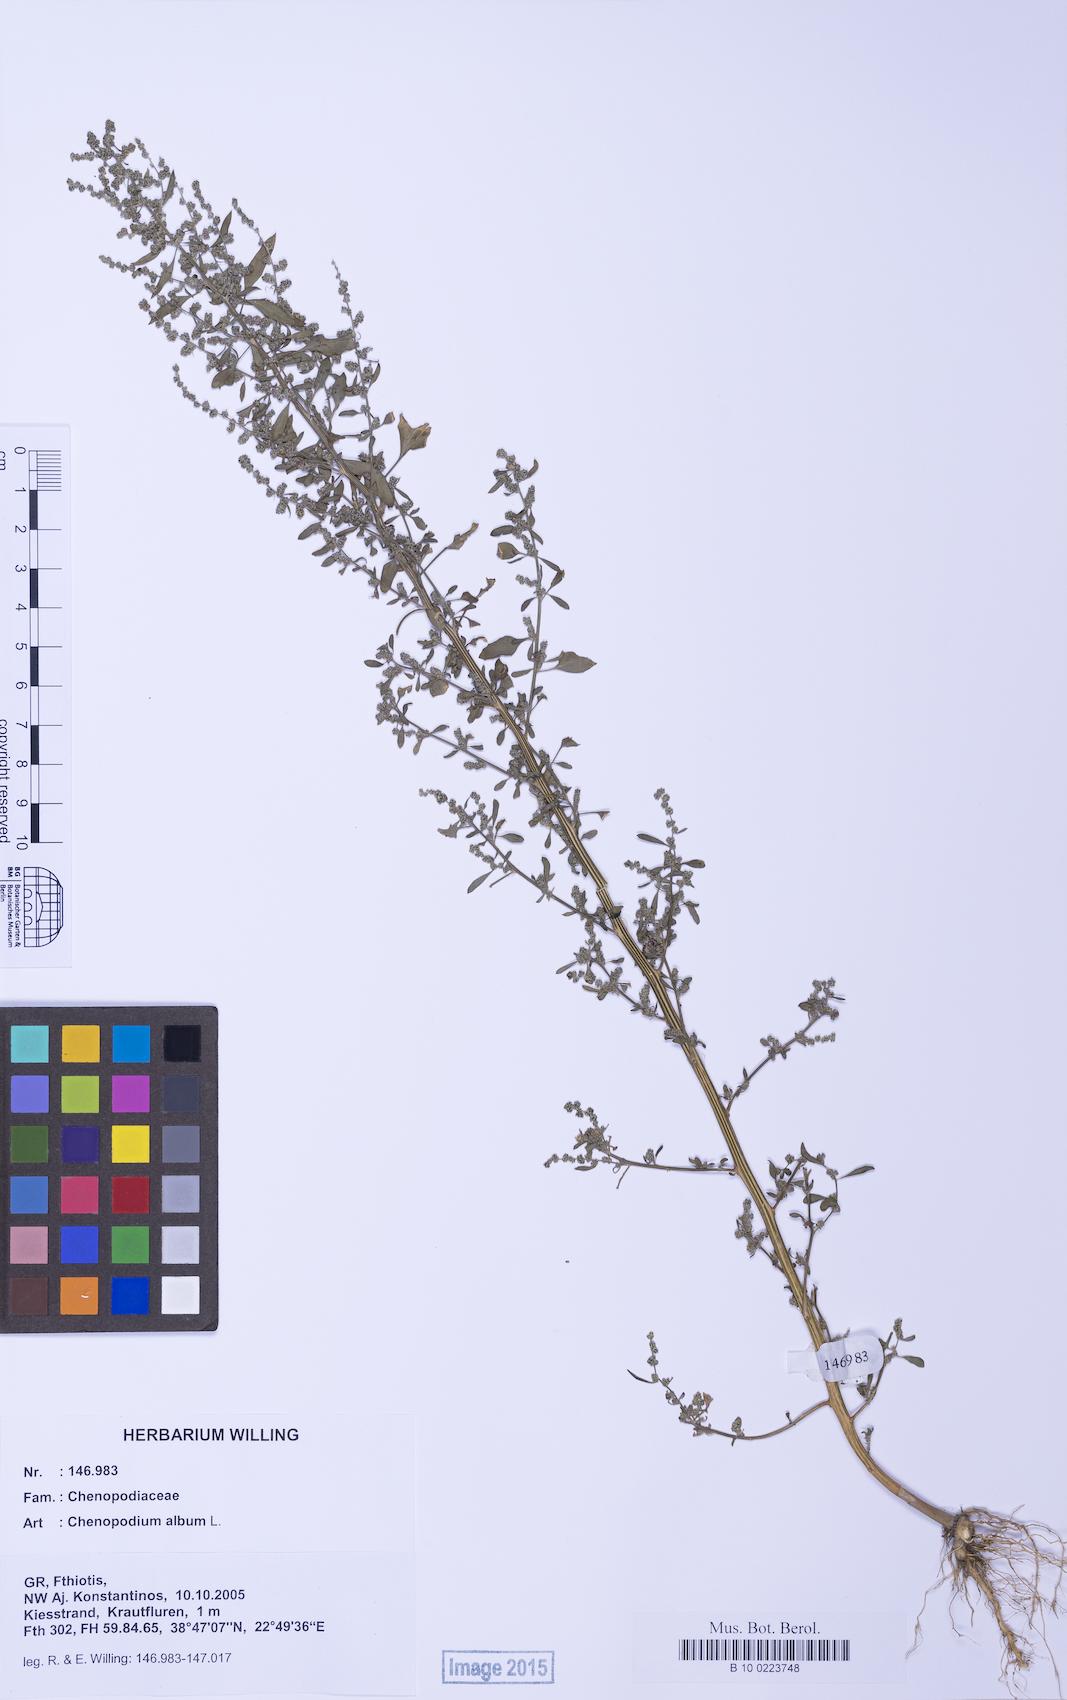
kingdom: Plantae
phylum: Tracheophyta
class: Magnoliopsida
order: Caryophyllales
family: Amaranthaceae
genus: Chenopodium
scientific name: Chenopodium album
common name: Fat-hen
